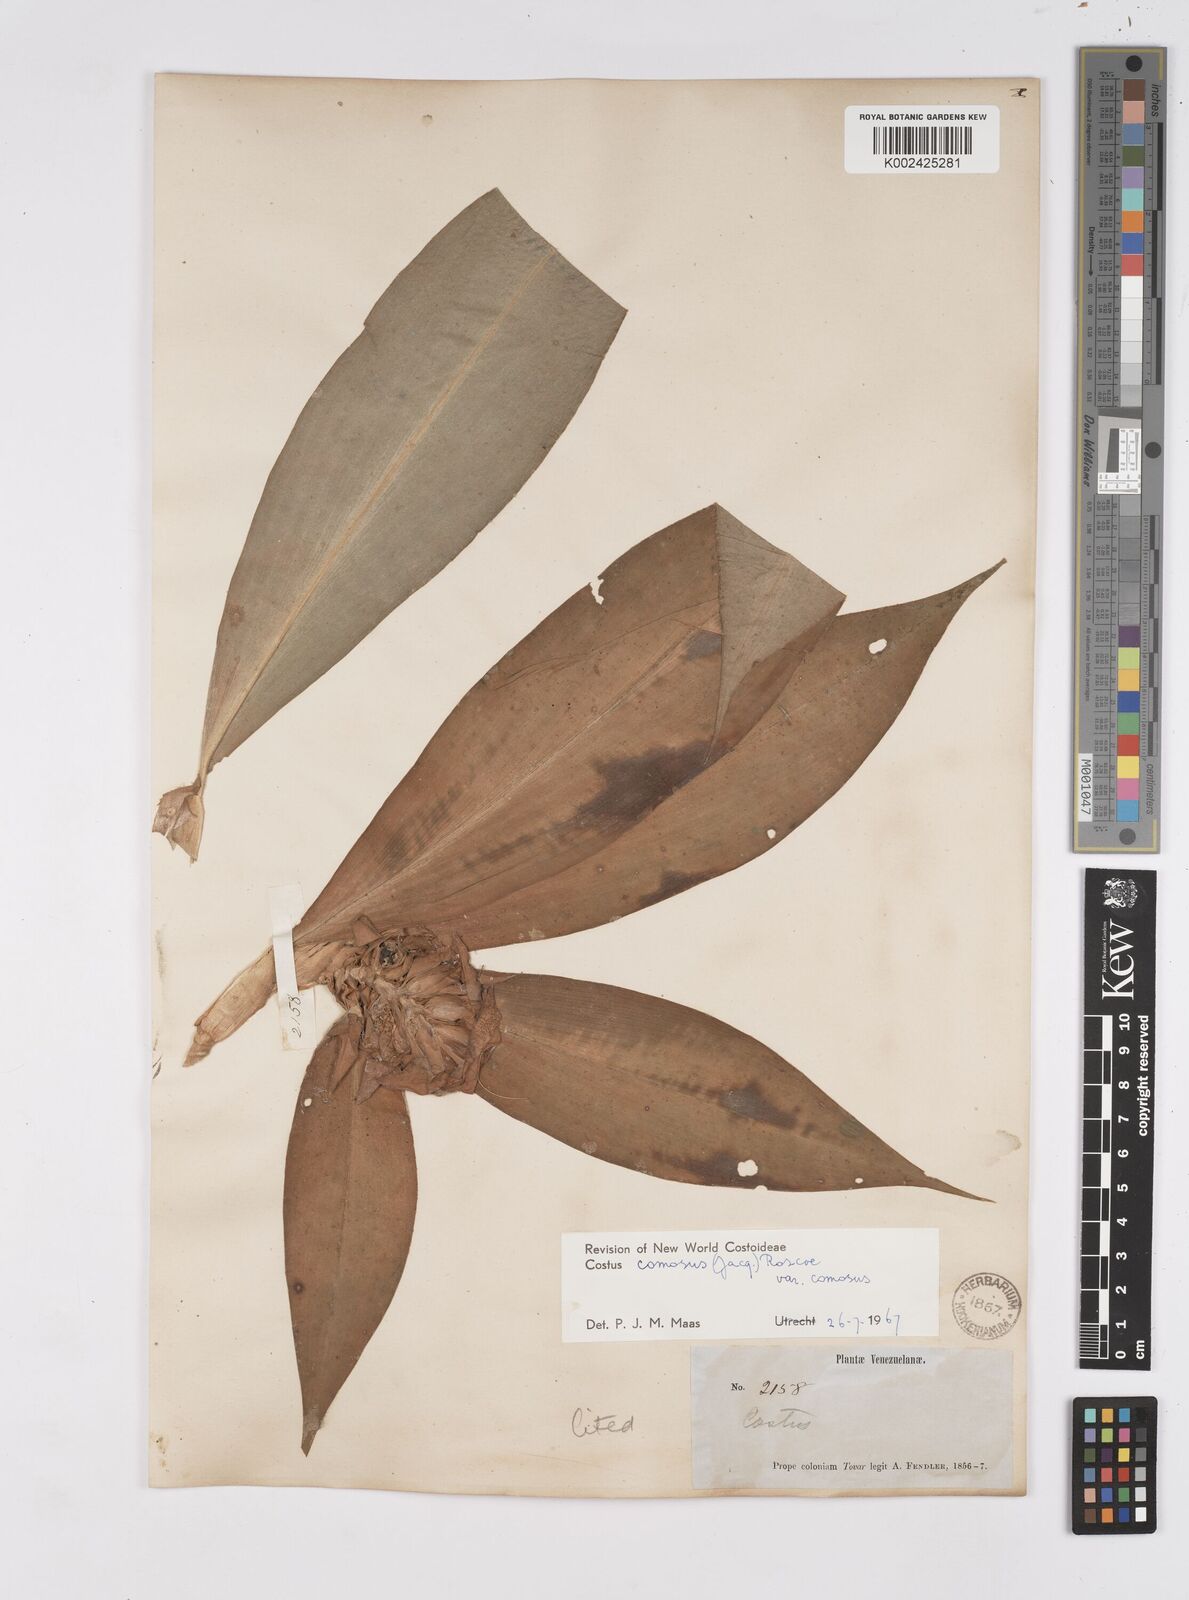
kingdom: Plantae
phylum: Tracheophyta
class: Liliopsida
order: Zingiberales
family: Costaceae
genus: Costus
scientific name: Costus comosus
